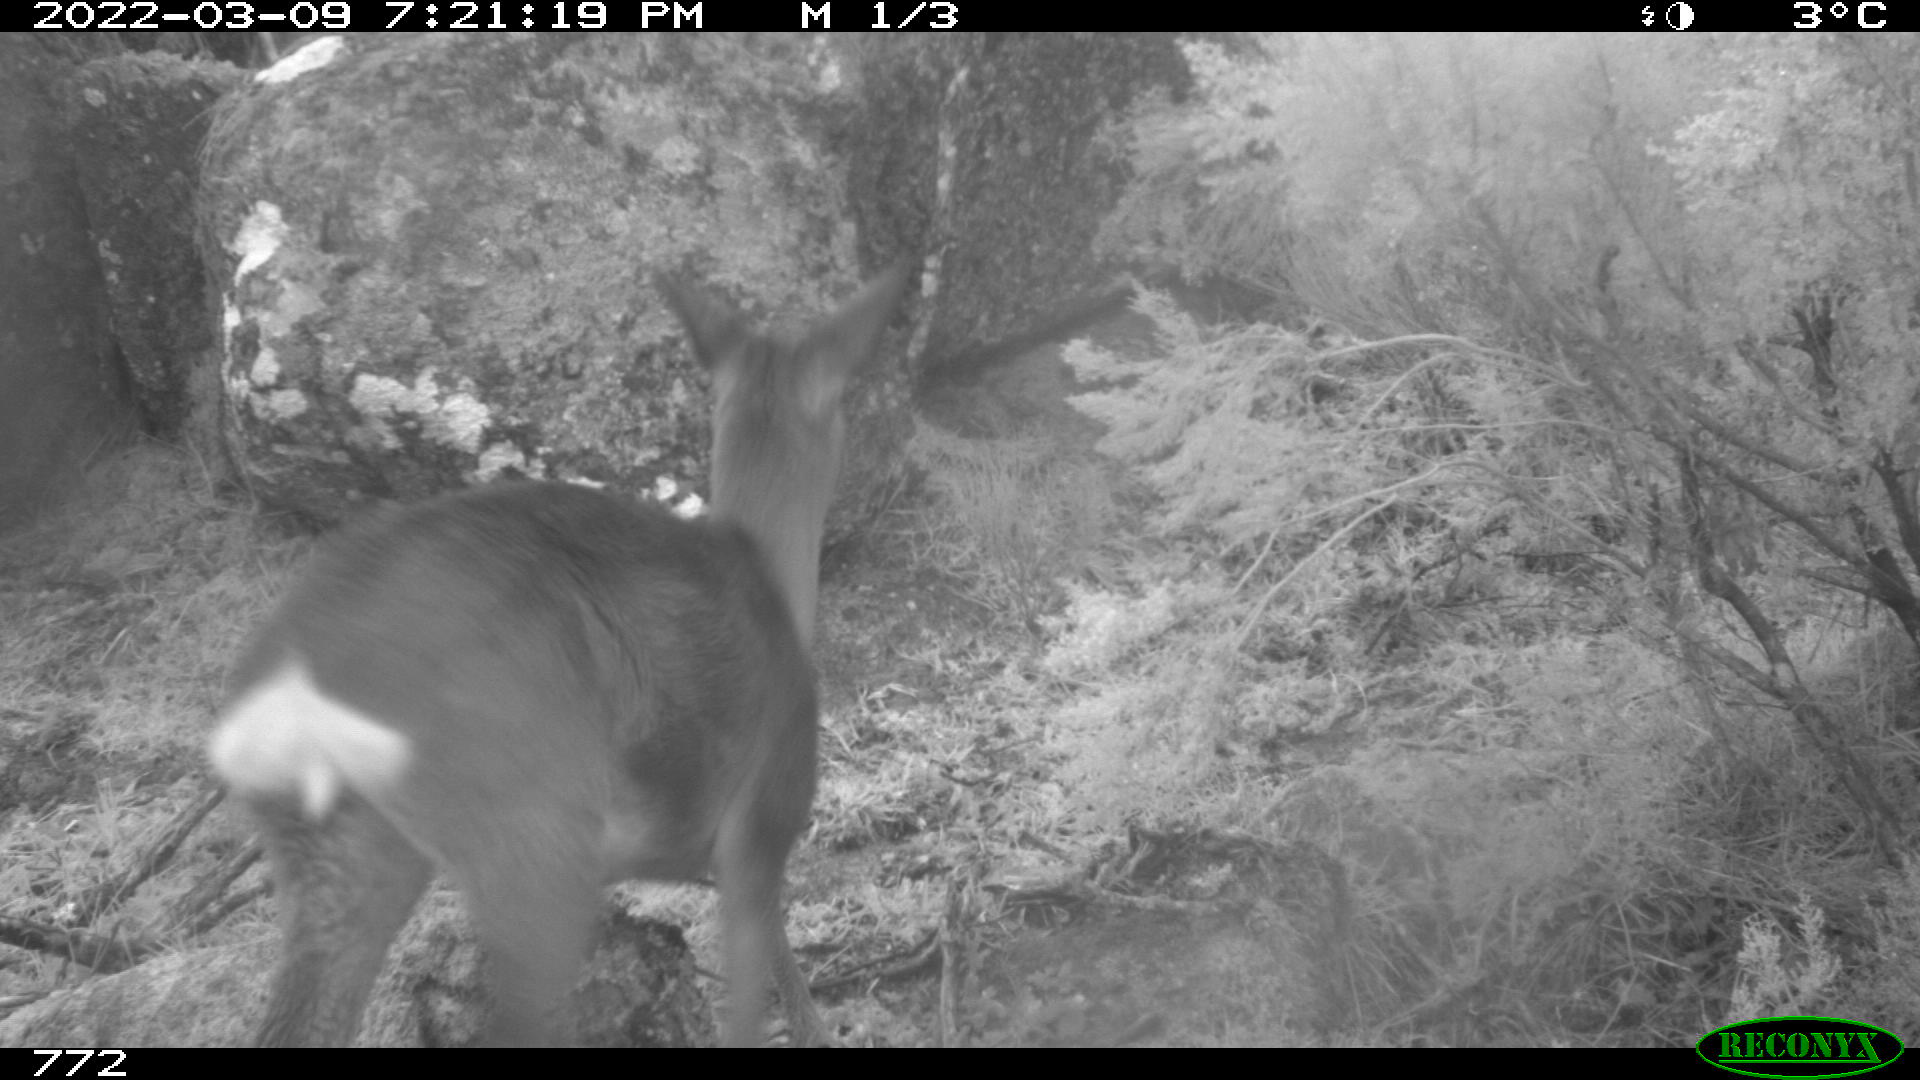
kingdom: Animalia
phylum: Chordata
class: Mammalia
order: Artiodactyla
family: Cervidae
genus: Capreolus
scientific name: Capreolus capreolus
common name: Western roe deer
